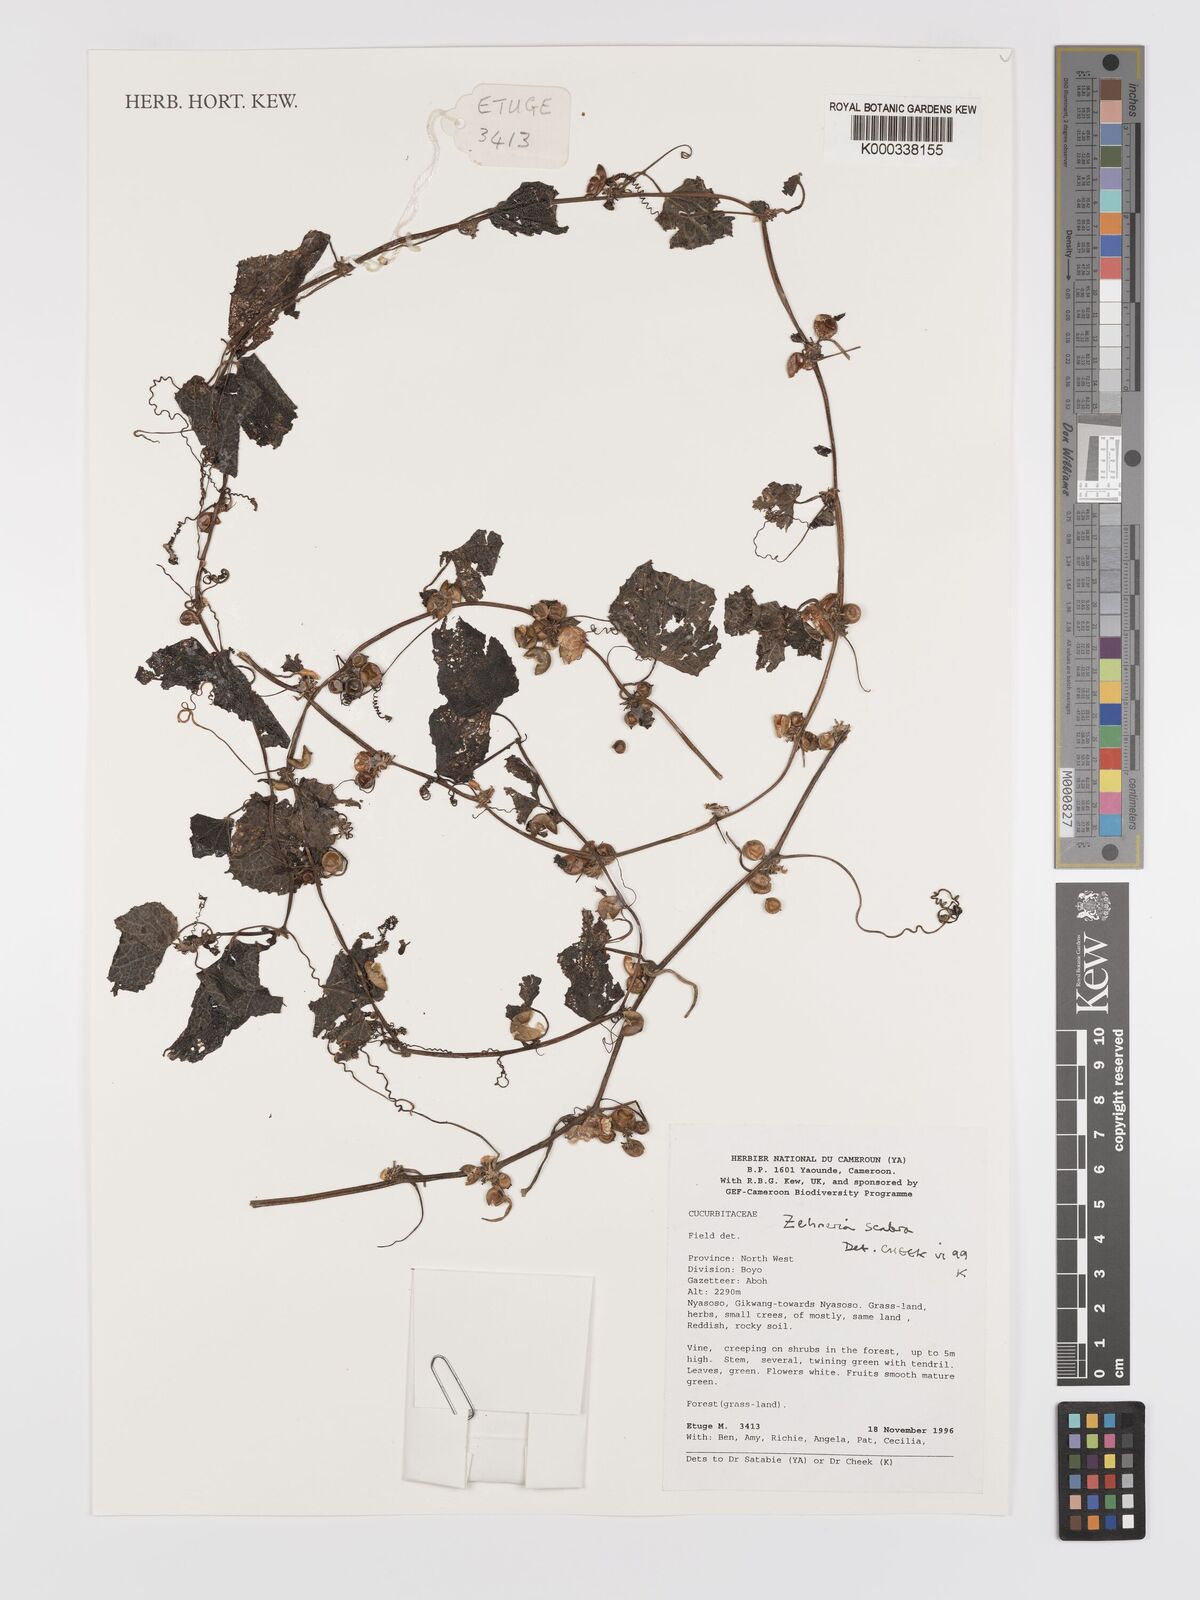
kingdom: Plantae
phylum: Tracheophyta
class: Magnoliopsida
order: Cucurbitales
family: Cucurbitaceae
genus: Zehneria
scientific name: Zehneria scabra
